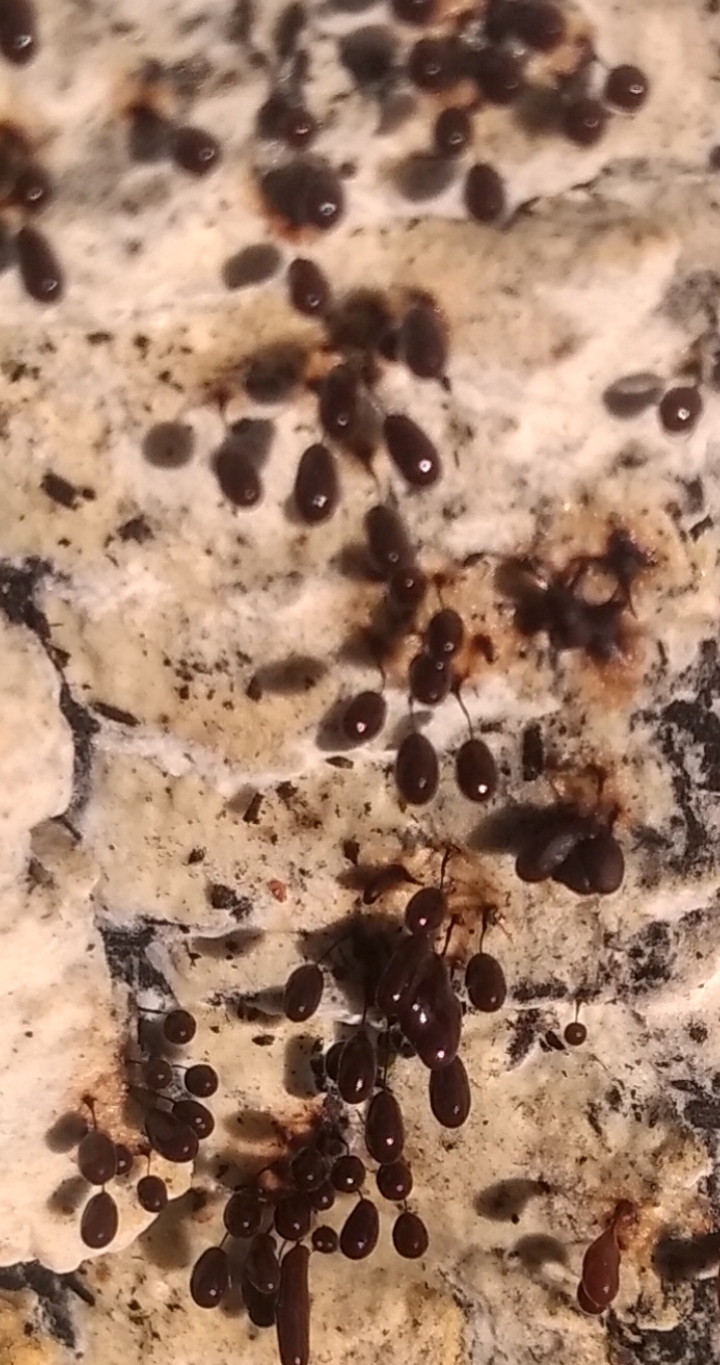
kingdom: Protozoa
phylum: Mycetozoa
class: Myxomycetes
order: Stemonitidales
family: Stemonitidaceae
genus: Comatricha
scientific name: Comatricha nigra
